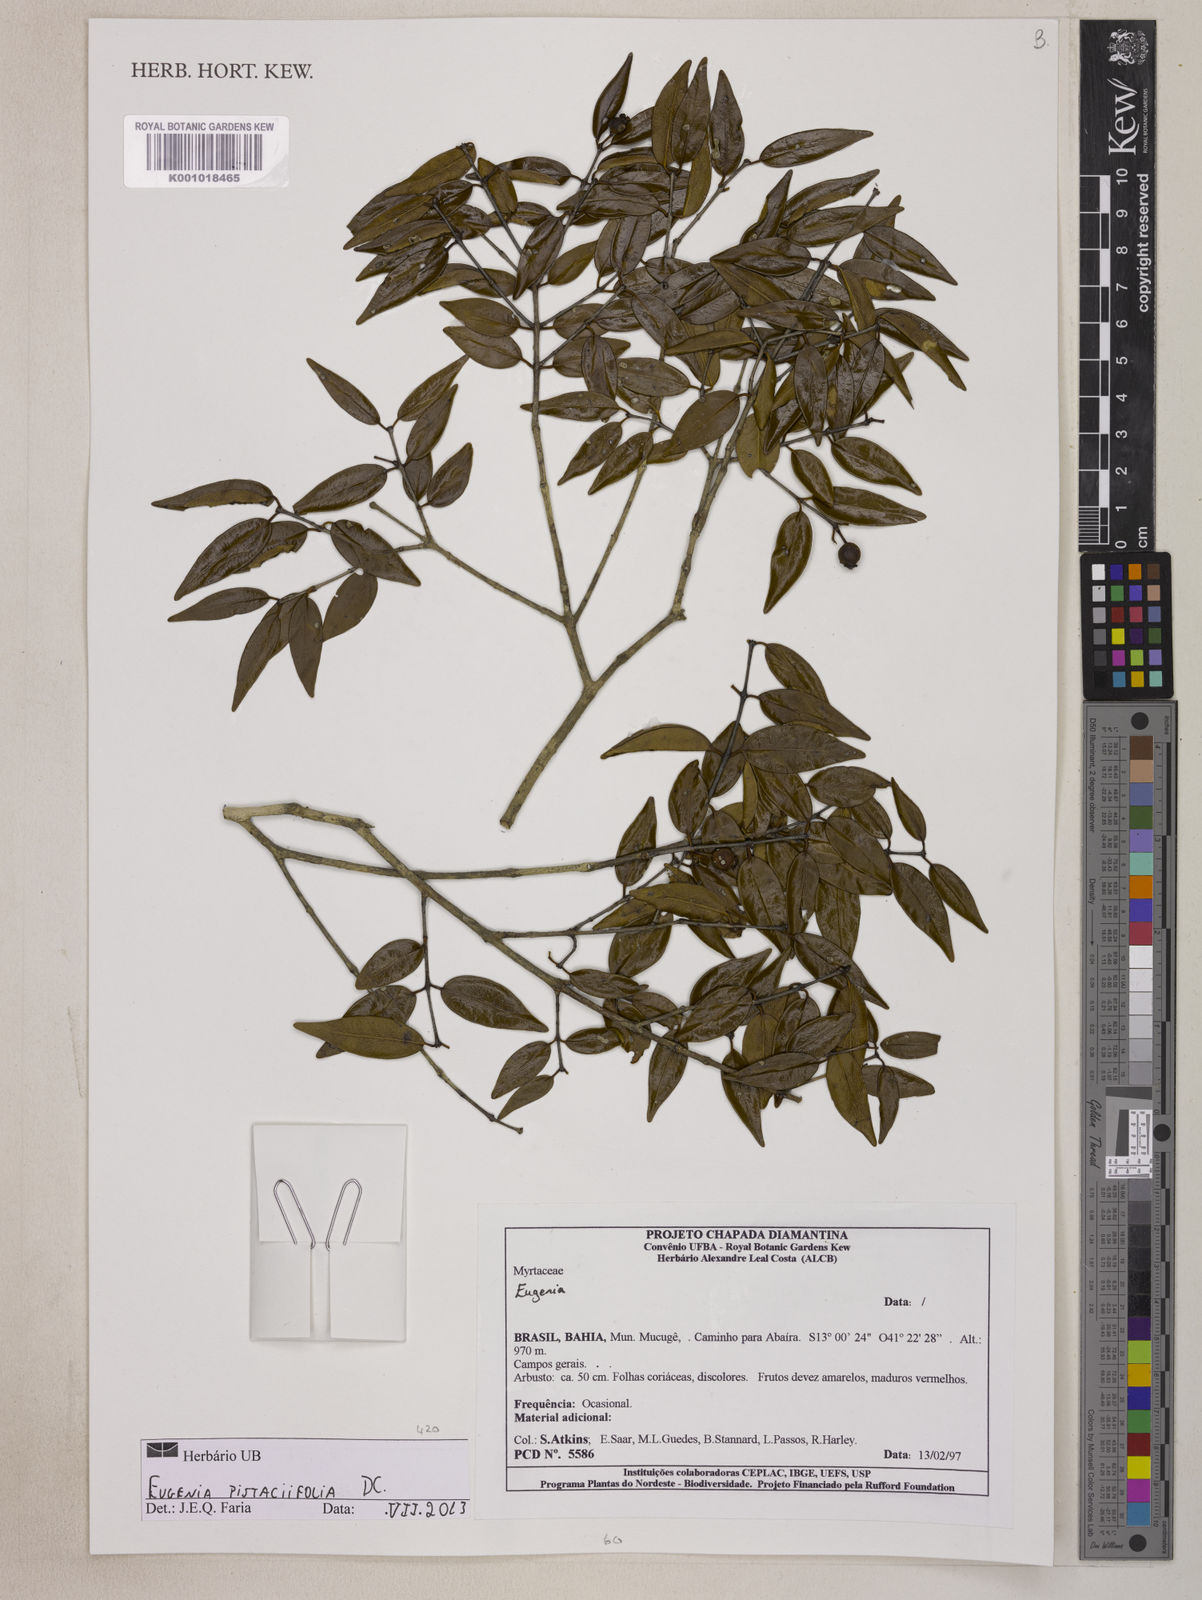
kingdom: Plantae
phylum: Tracheophyta
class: Magnoliopsida
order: Myrtales
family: Myrtaceae
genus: Eugenia
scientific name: Eugenia pistaciifolia
